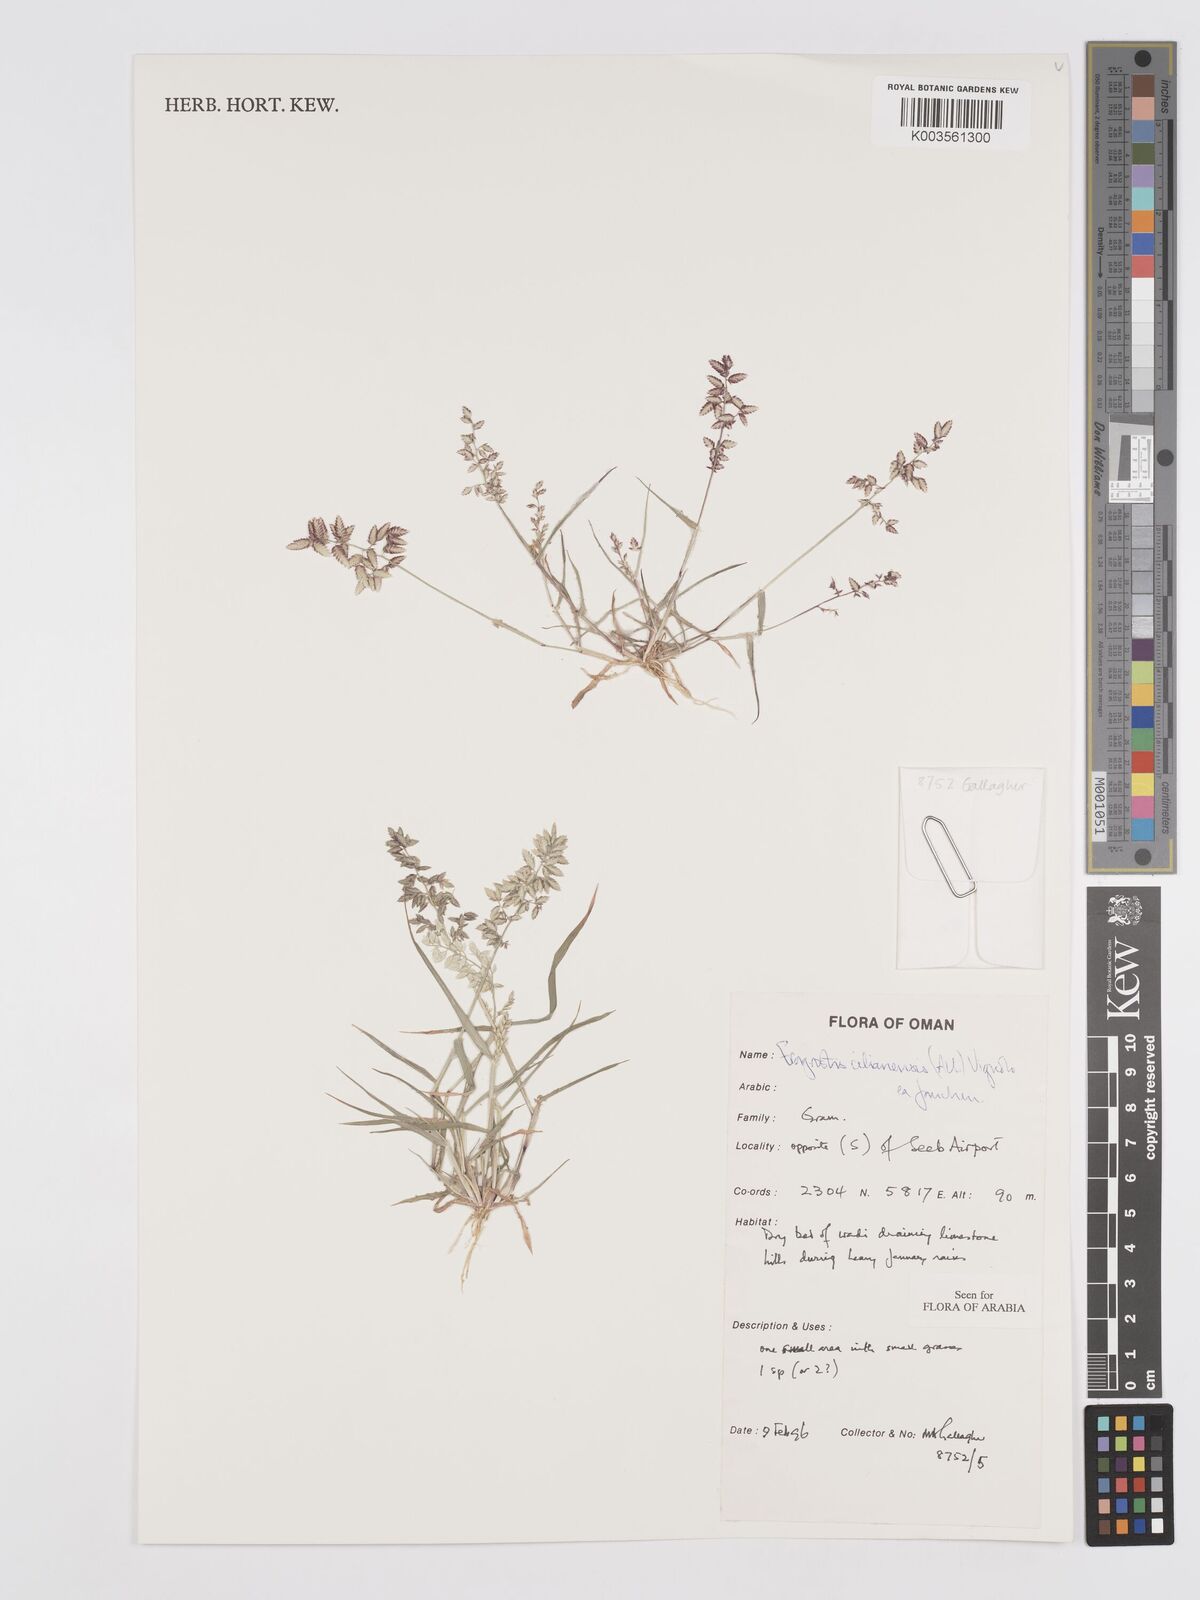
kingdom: Plantae
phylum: Tracheophyta
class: Liliopsida
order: Poales
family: Poaceae
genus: Eragrostis
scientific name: Eragrostis cilianensis
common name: Stinkgrass
